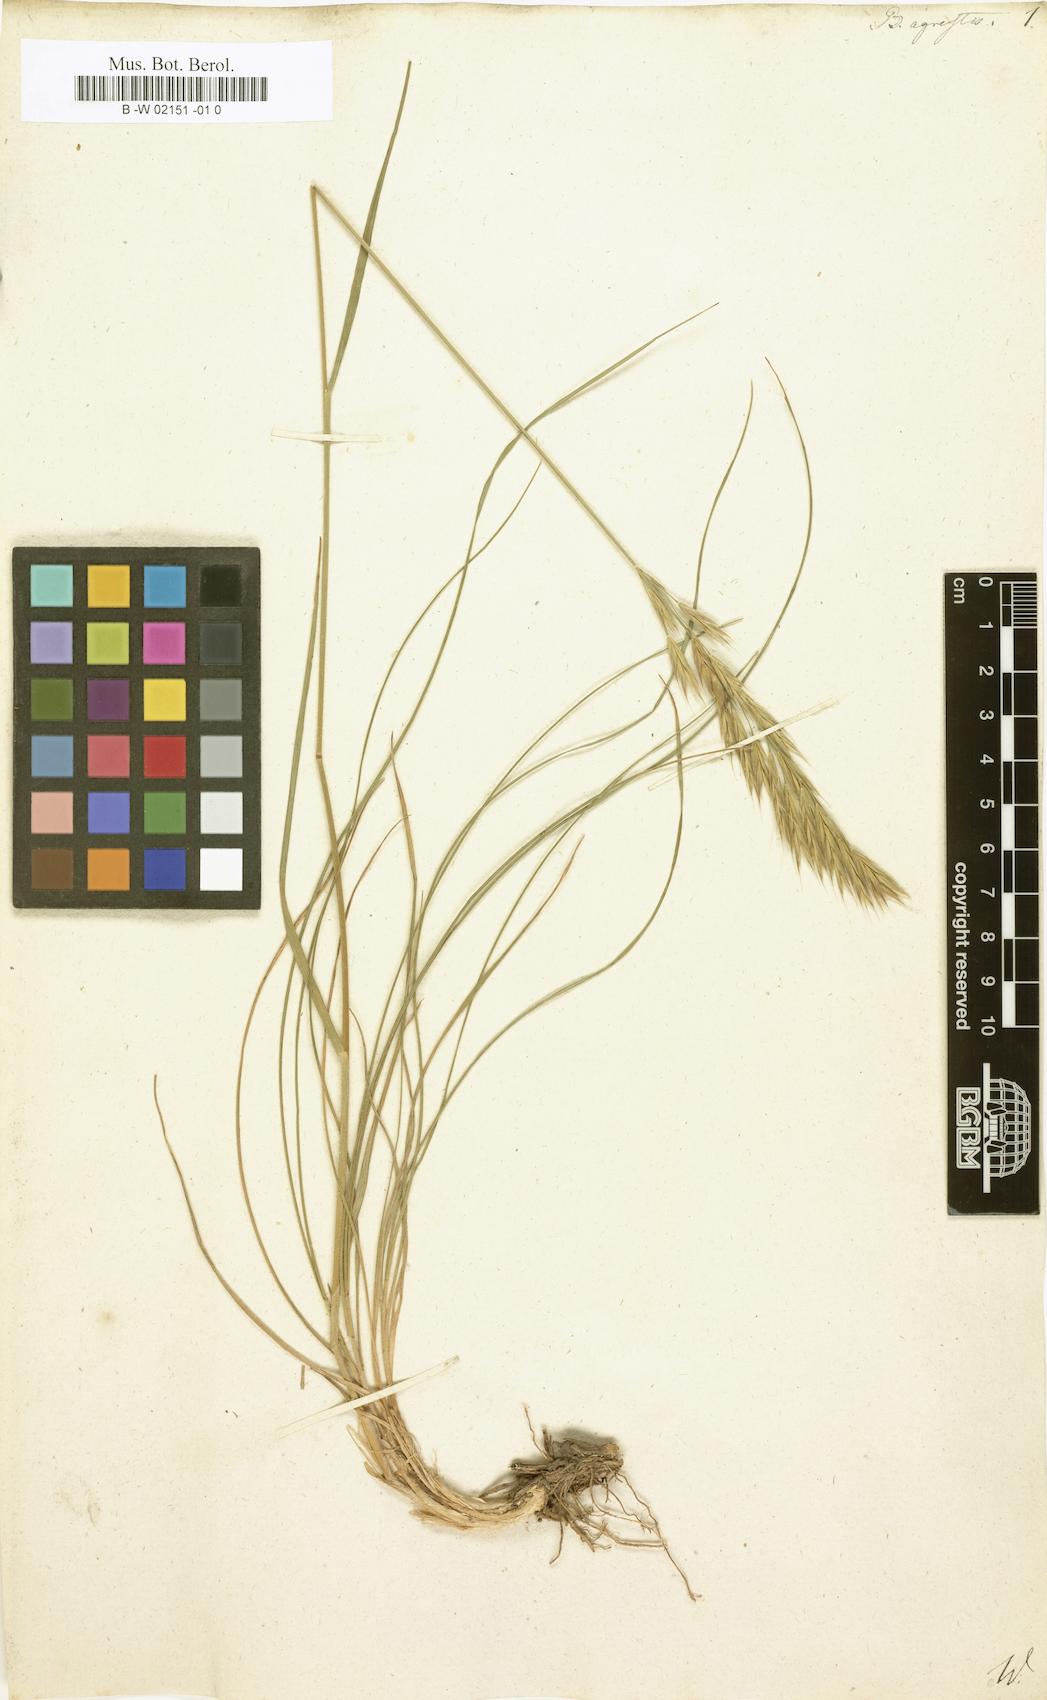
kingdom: Plantae
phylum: Tracheophyta
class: Liliopsida
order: Poales
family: Poaceae
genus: Bromus
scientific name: Bromus erectus
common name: Erect brome
